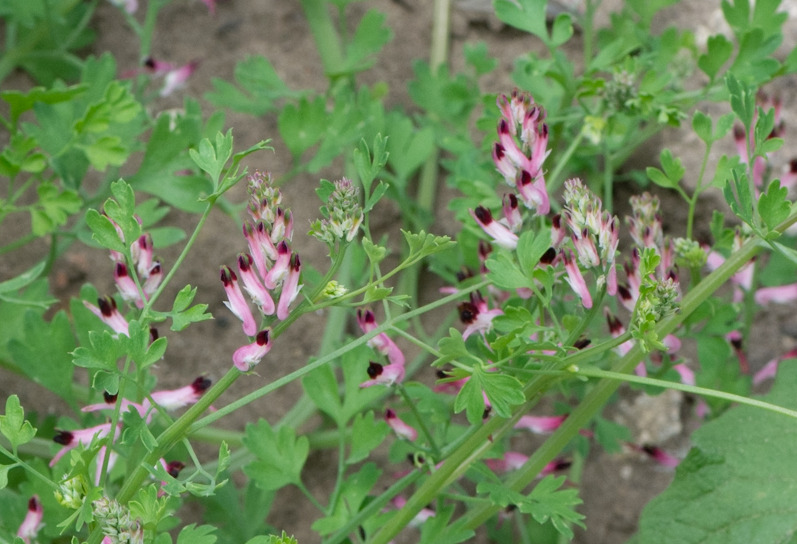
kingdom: Plantae
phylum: Tracheophyta
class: Magnoliopsida
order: Ranunculales
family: Papaveraceae
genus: Fumaria
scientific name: Fumaria muralis
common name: Mur-jordrøg
